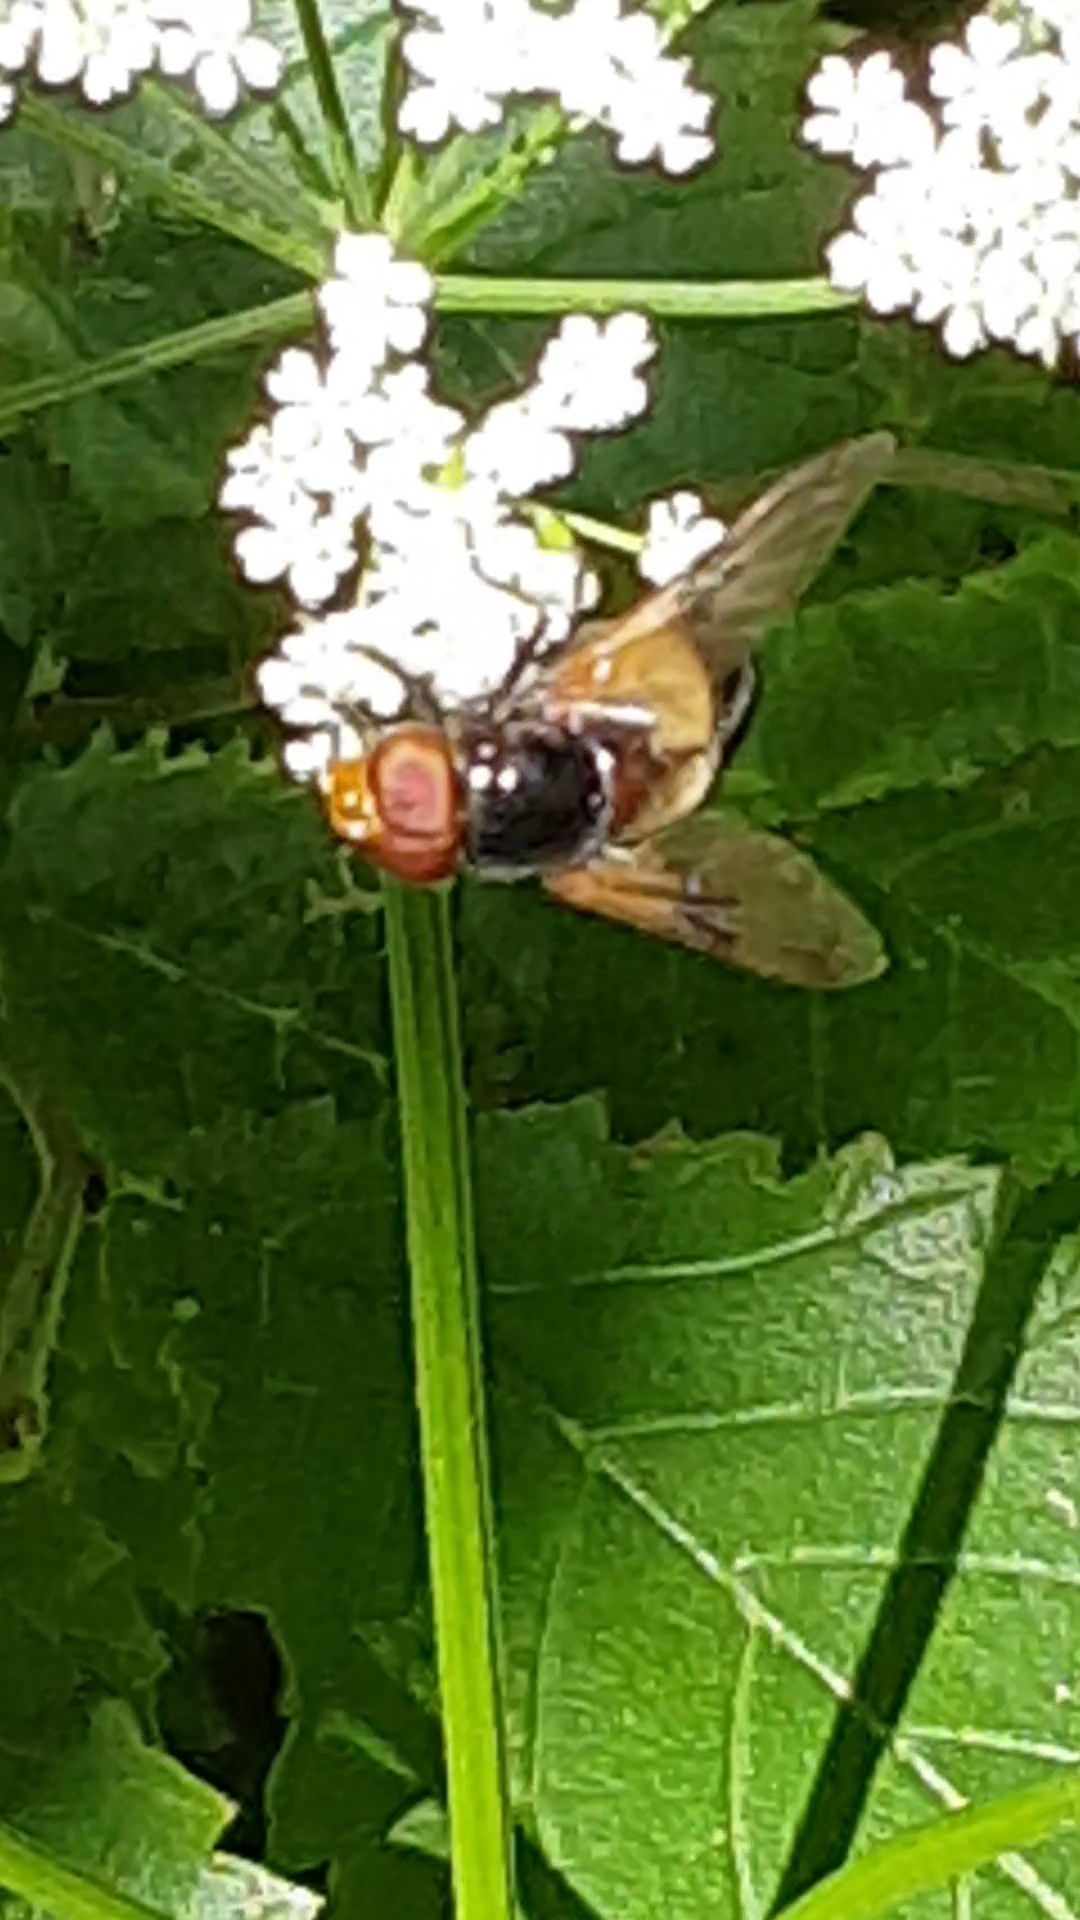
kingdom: Animalia
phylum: Arthropoda
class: Insecta
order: Diptera
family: Syrphidae
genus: Volucella
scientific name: Volucella pellucens
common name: Hvidbåndet humlesvirreflue
